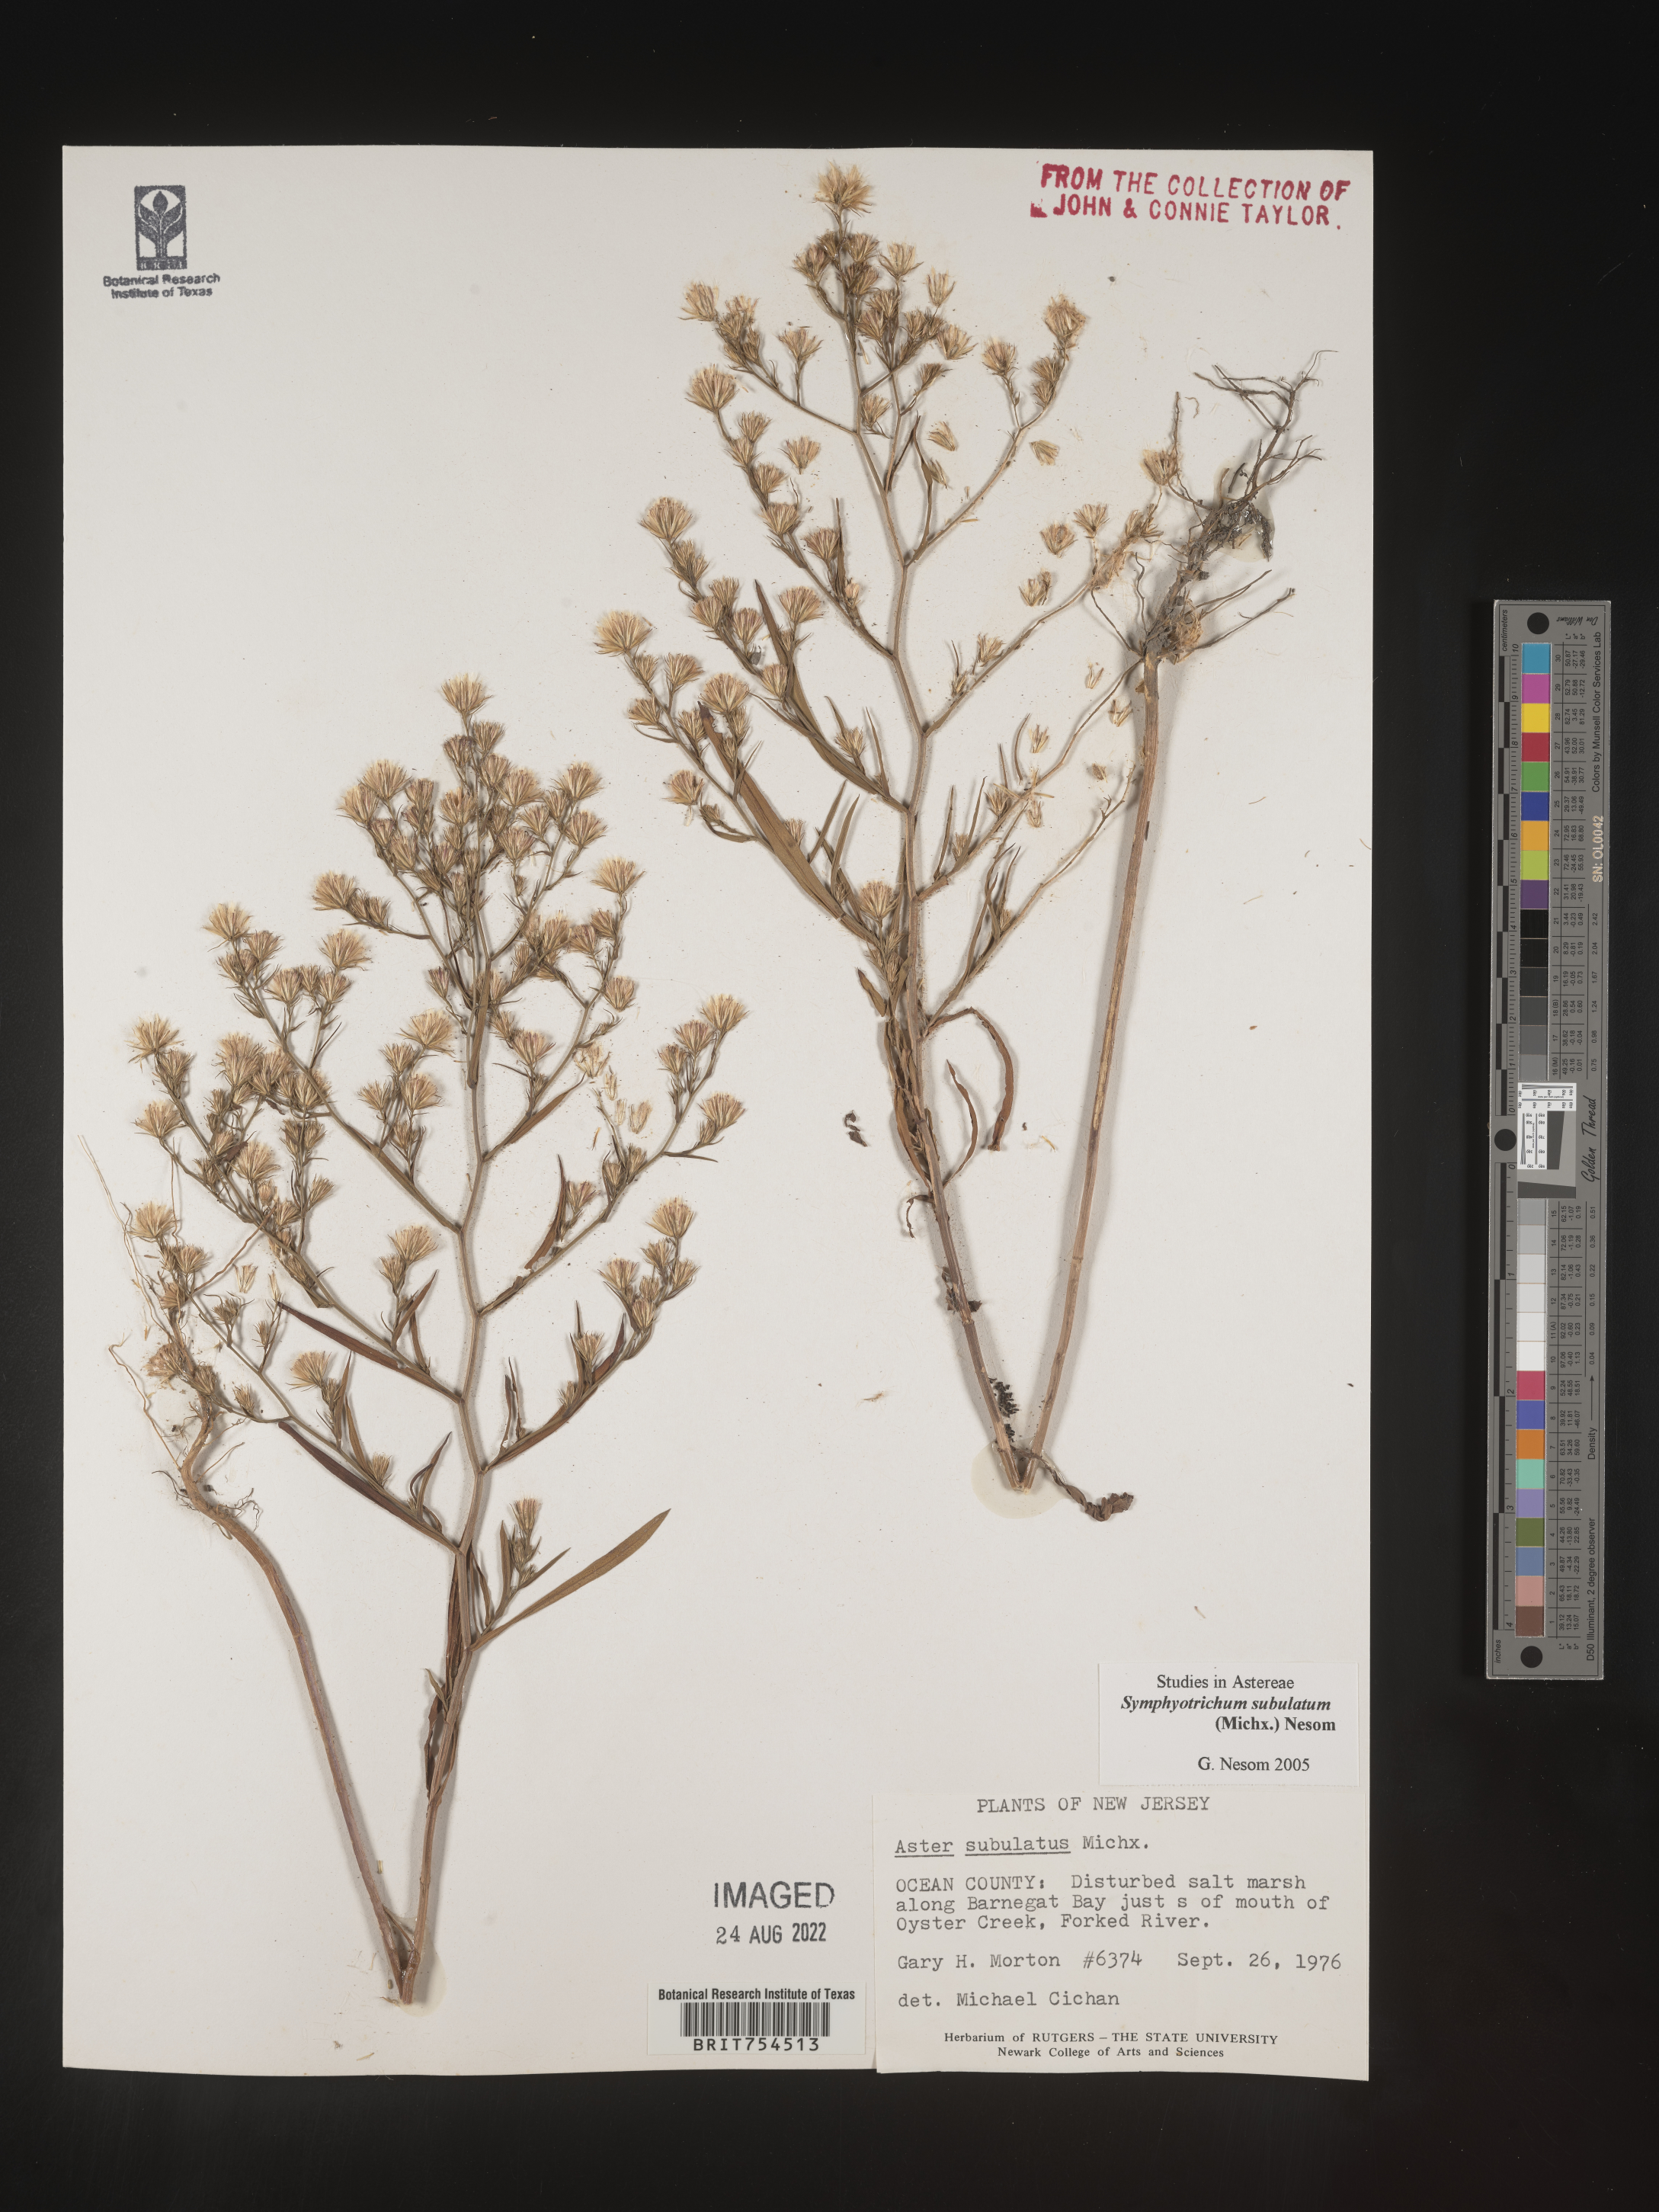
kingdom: Plantae
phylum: Tracheophyta
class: Magnoliopsida
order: Asterales
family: Asteraceae
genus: Symphyotrichum
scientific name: Symphyotrichum subulatum
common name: Annual saltmarsh aster
